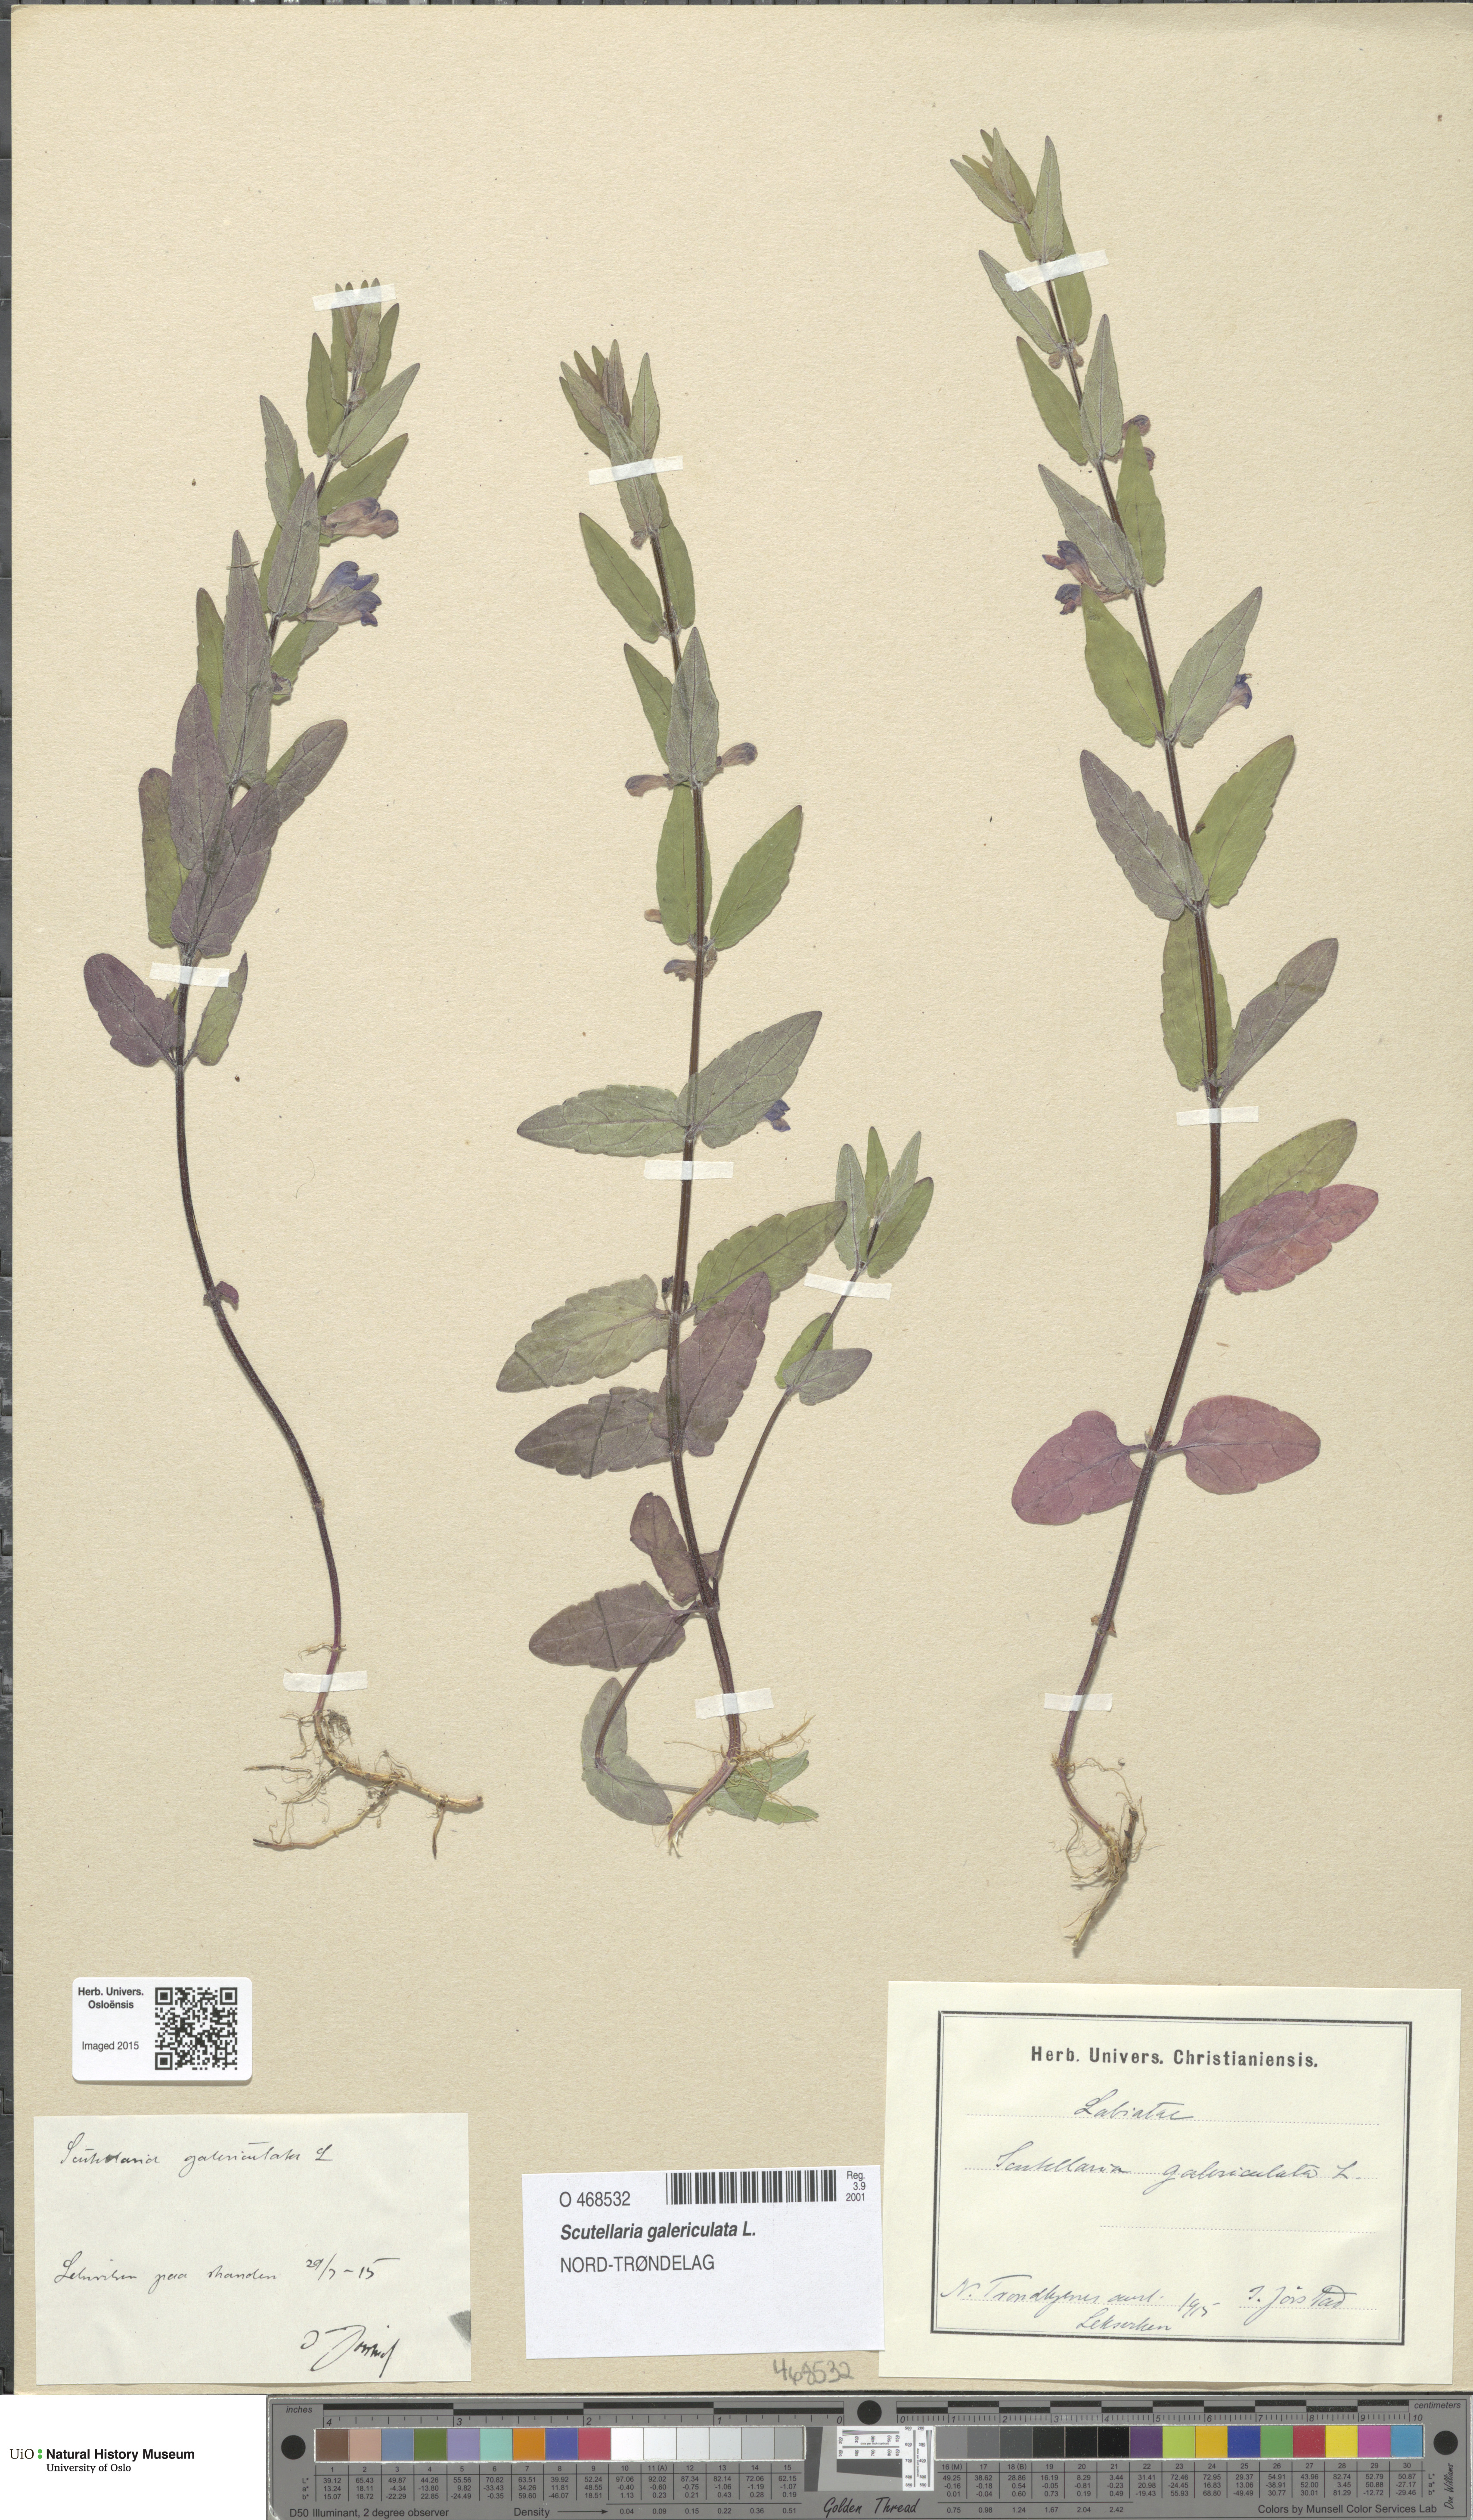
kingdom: Plantae
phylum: Tracheophyta
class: Magnoliopsida
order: Lamiales
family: Lamiaceae
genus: Scutellaria
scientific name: Scutellaria galericulata
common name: Skullcap
